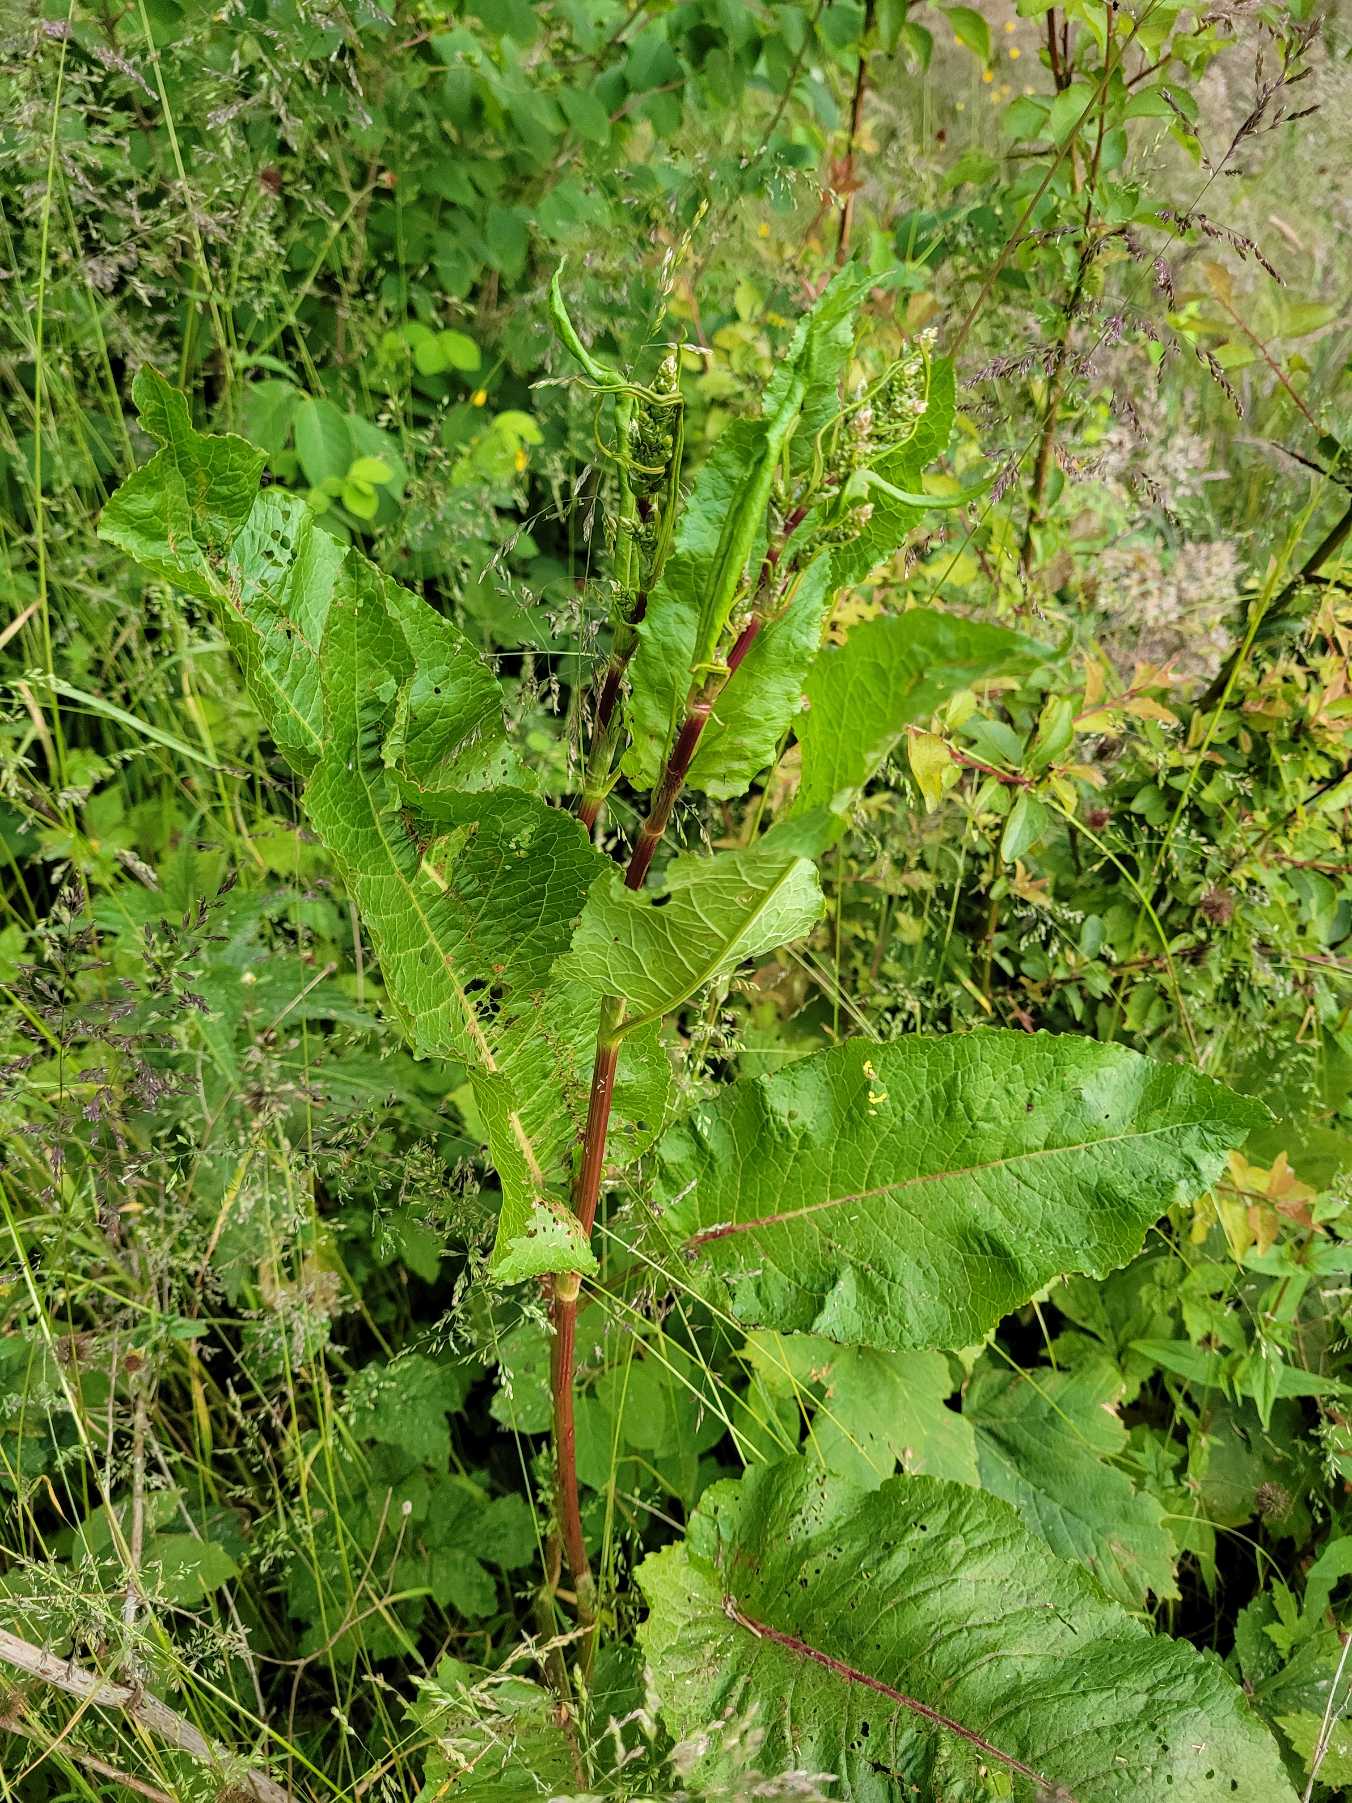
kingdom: Plantae
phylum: Tracheophyta
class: Magnoliopsida
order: Caryophyllales
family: Polygonaceae
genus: Rumex
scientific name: Rumex obtusifolius
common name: Butbladet skræppe
